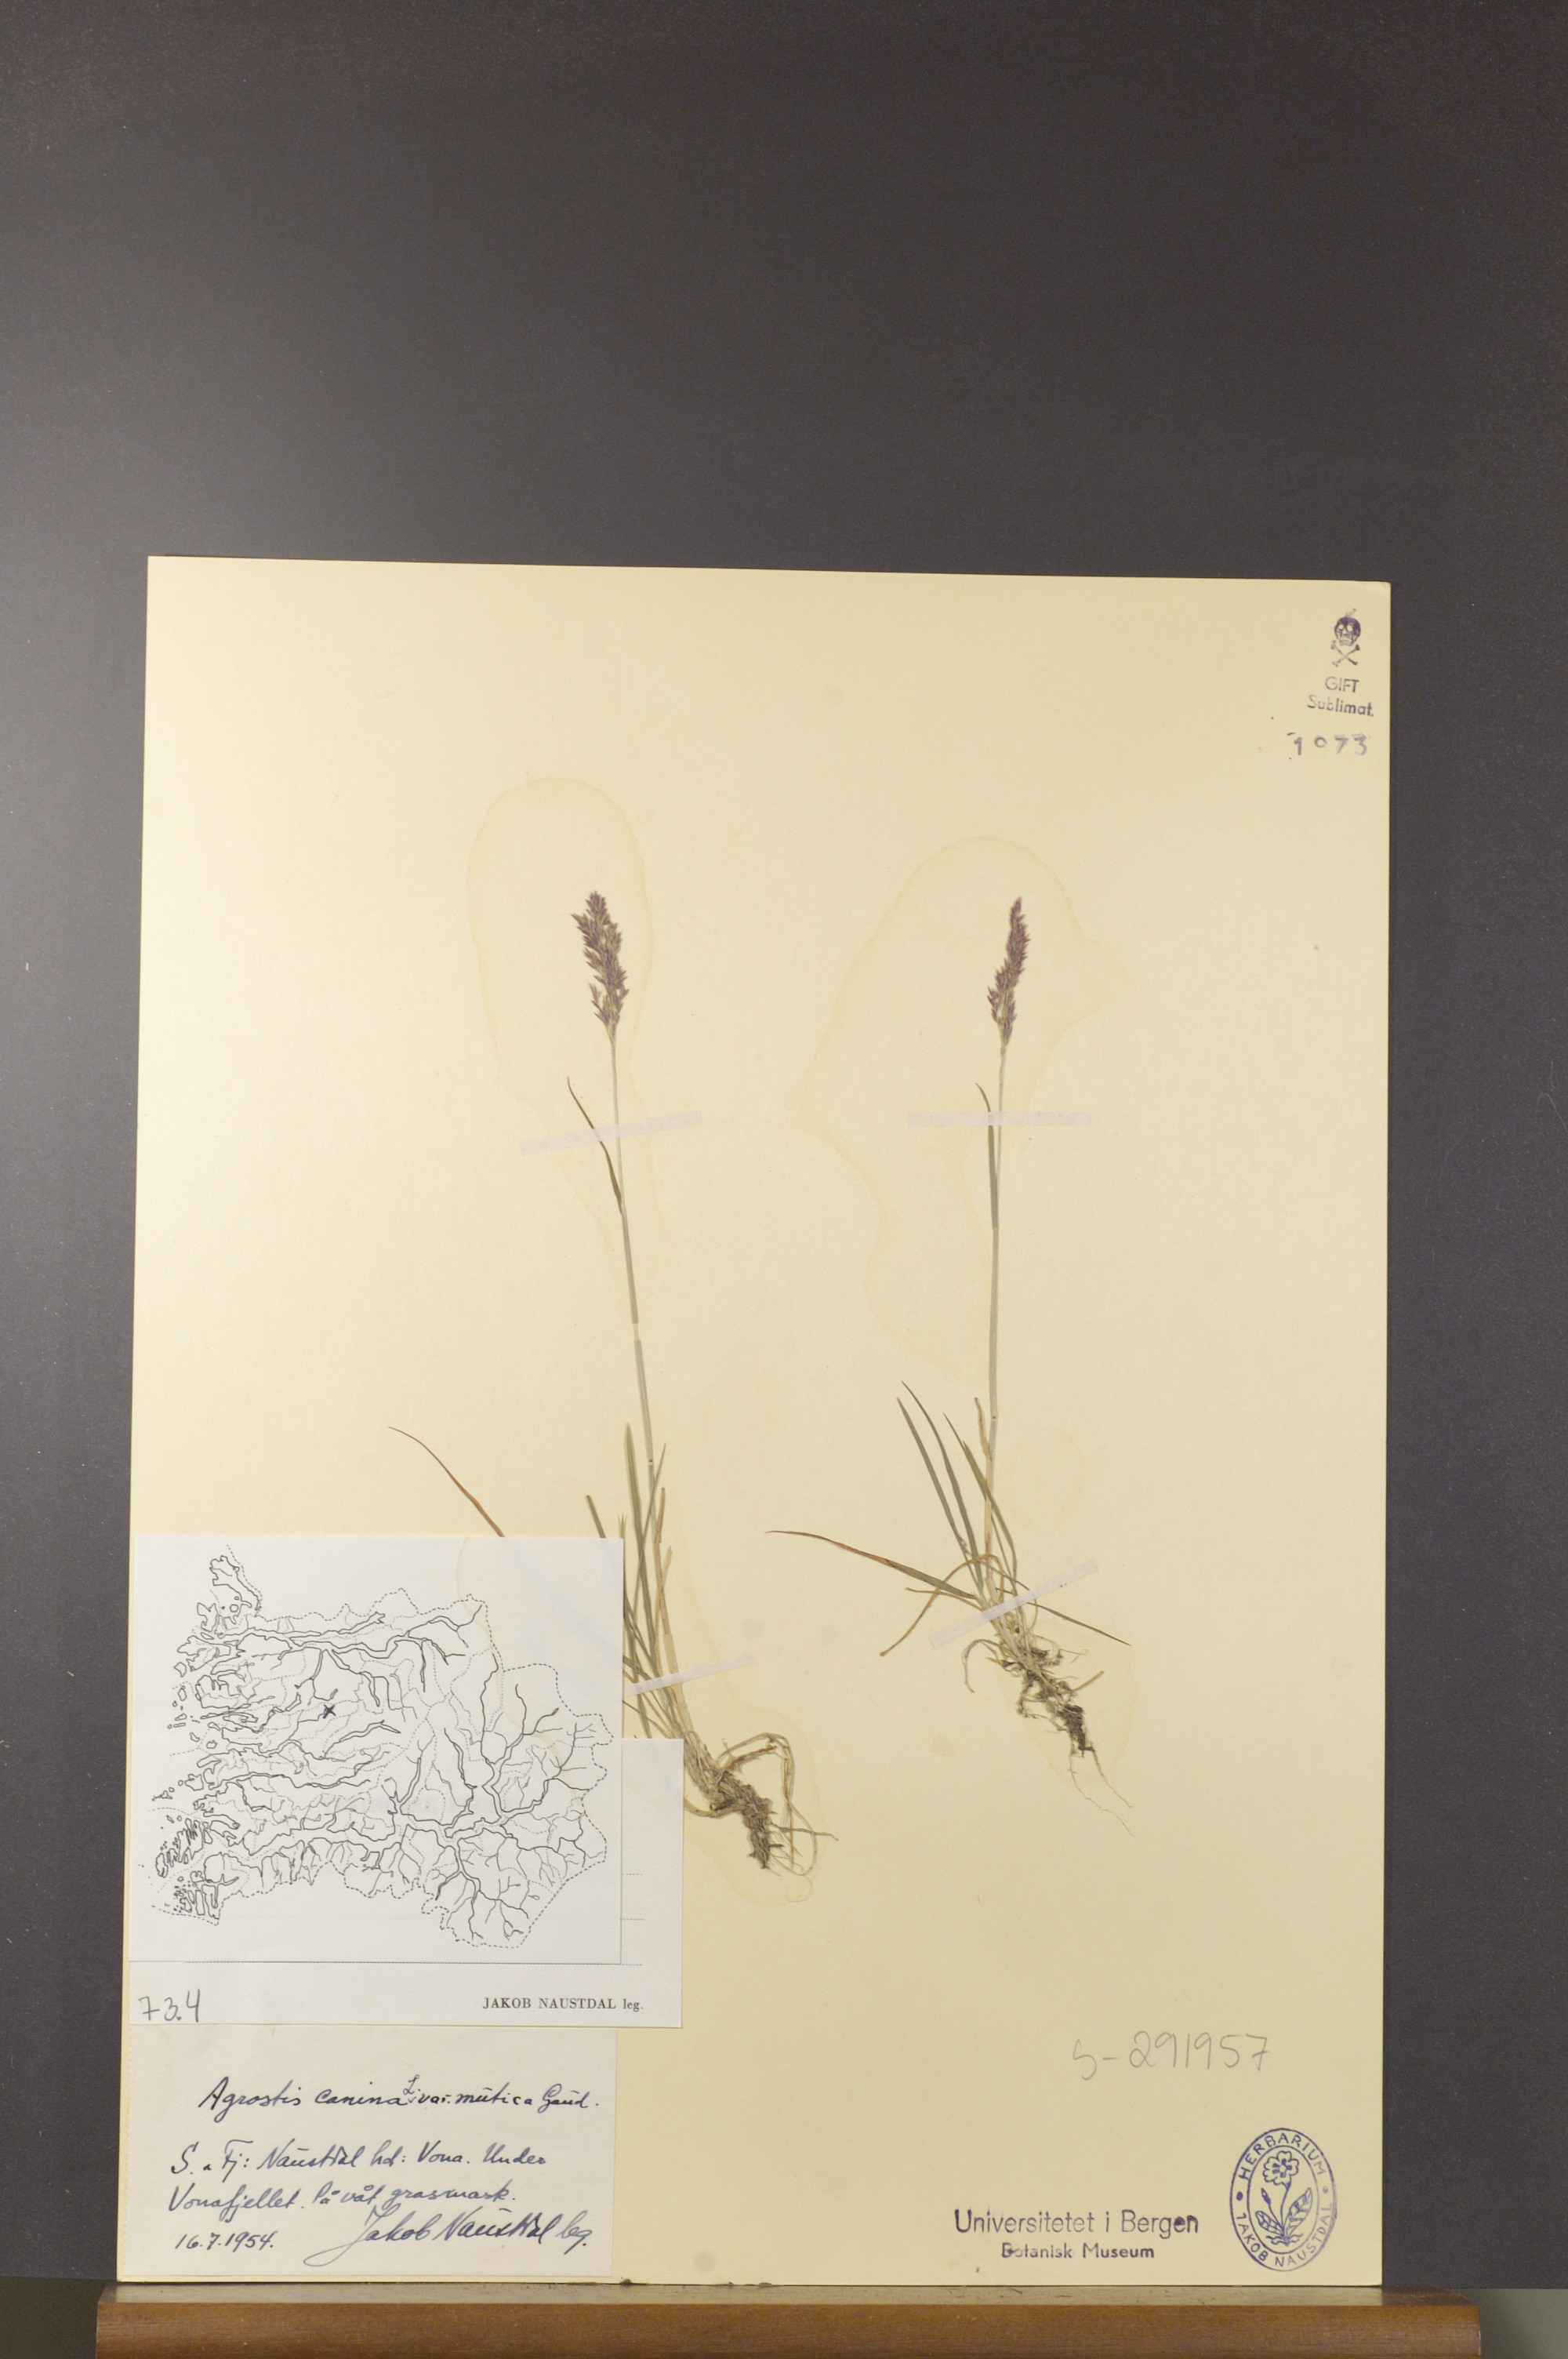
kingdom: Plantae
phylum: Tracheophyta
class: Liliopsida
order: Poales
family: Poaceae
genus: Agrostis
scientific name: Agrostis vinealis
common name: Brown bent
